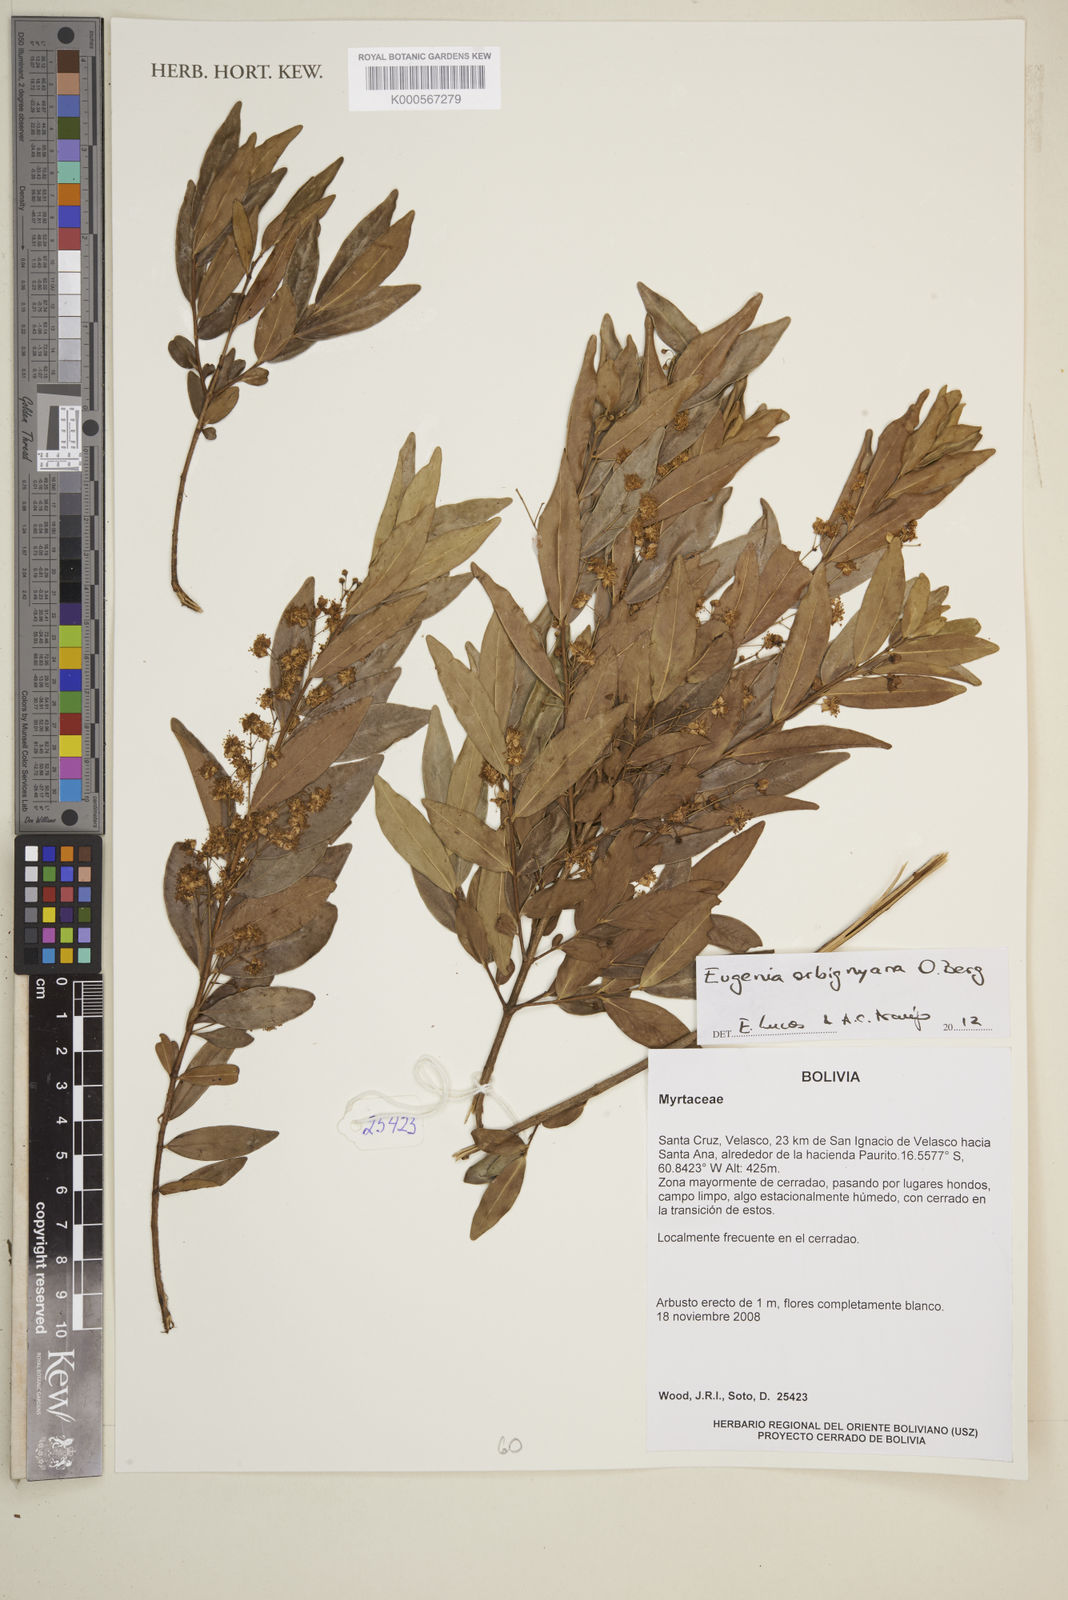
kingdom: Plantae
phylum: Tracheophyta
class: Magnoliopsida
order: Myrtales
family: Myrtaceae
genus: Eugenia
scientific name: Eugenia orbignyana
